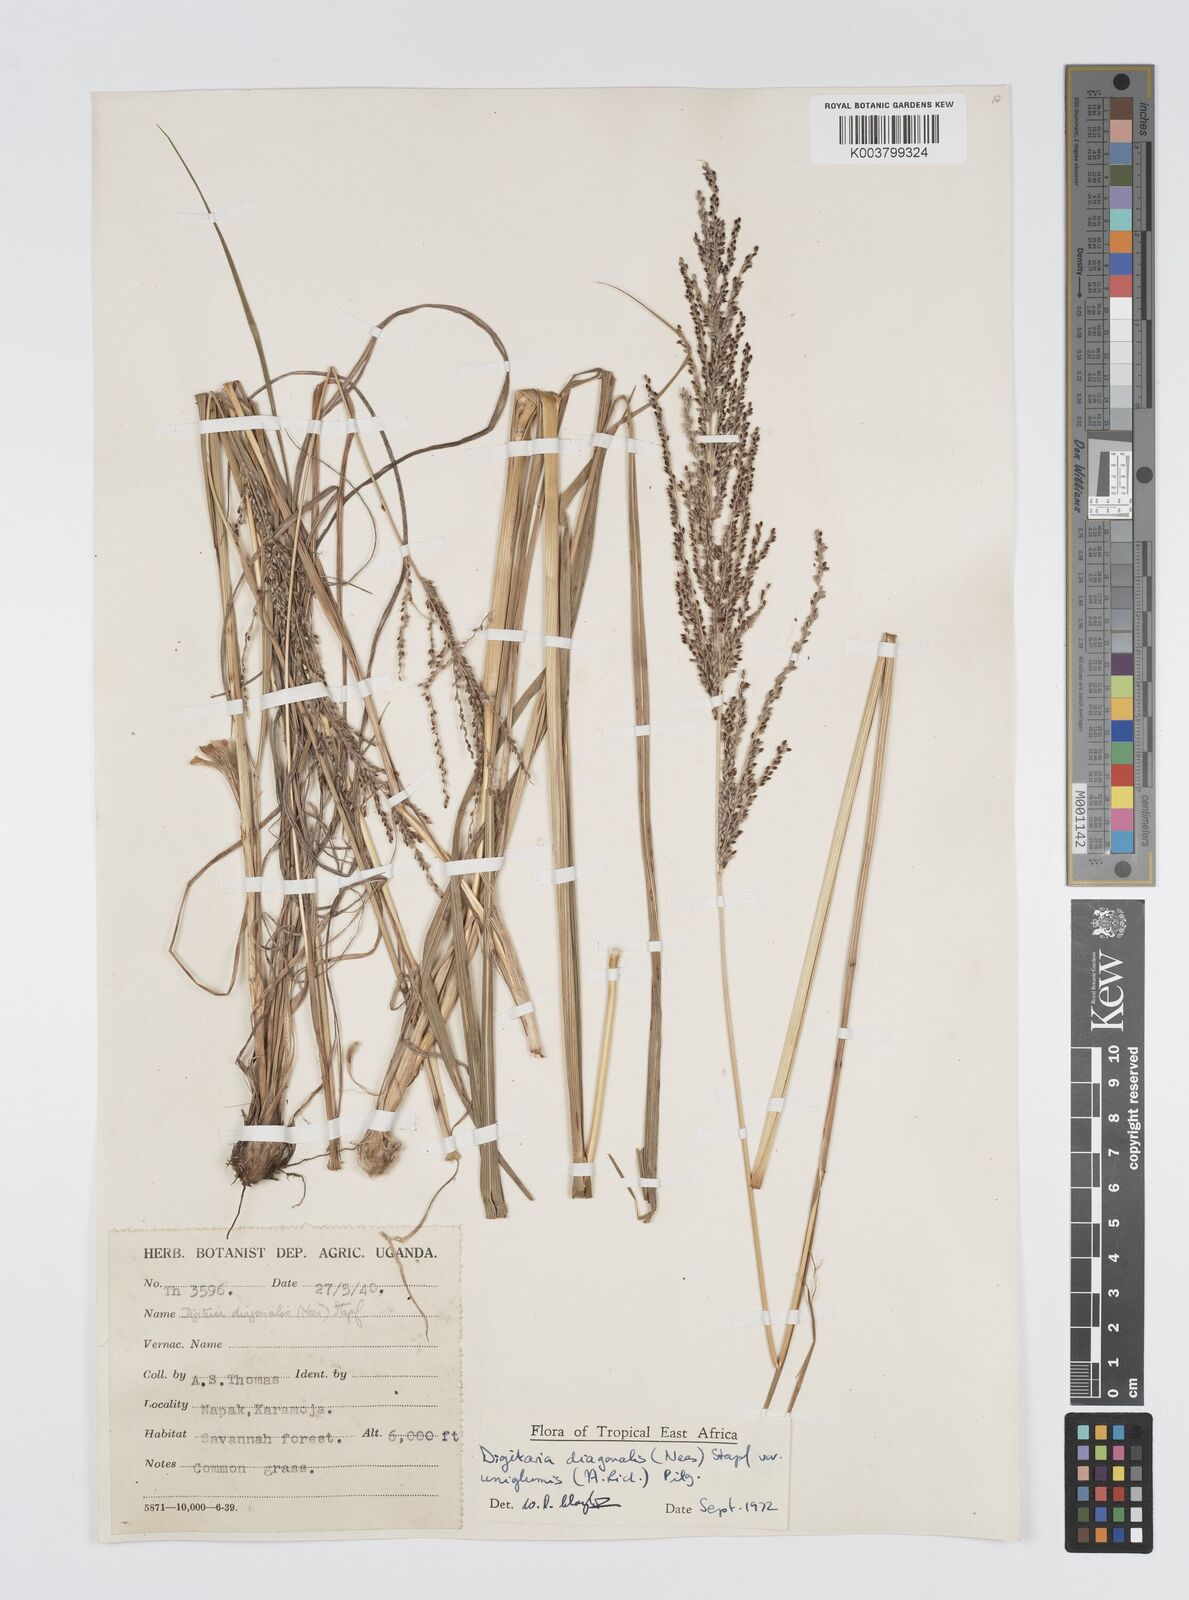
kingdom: Plantae
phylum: Tracheophyta
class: Liliopsida
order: Poales
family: Poaceae
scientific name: Poaceae
